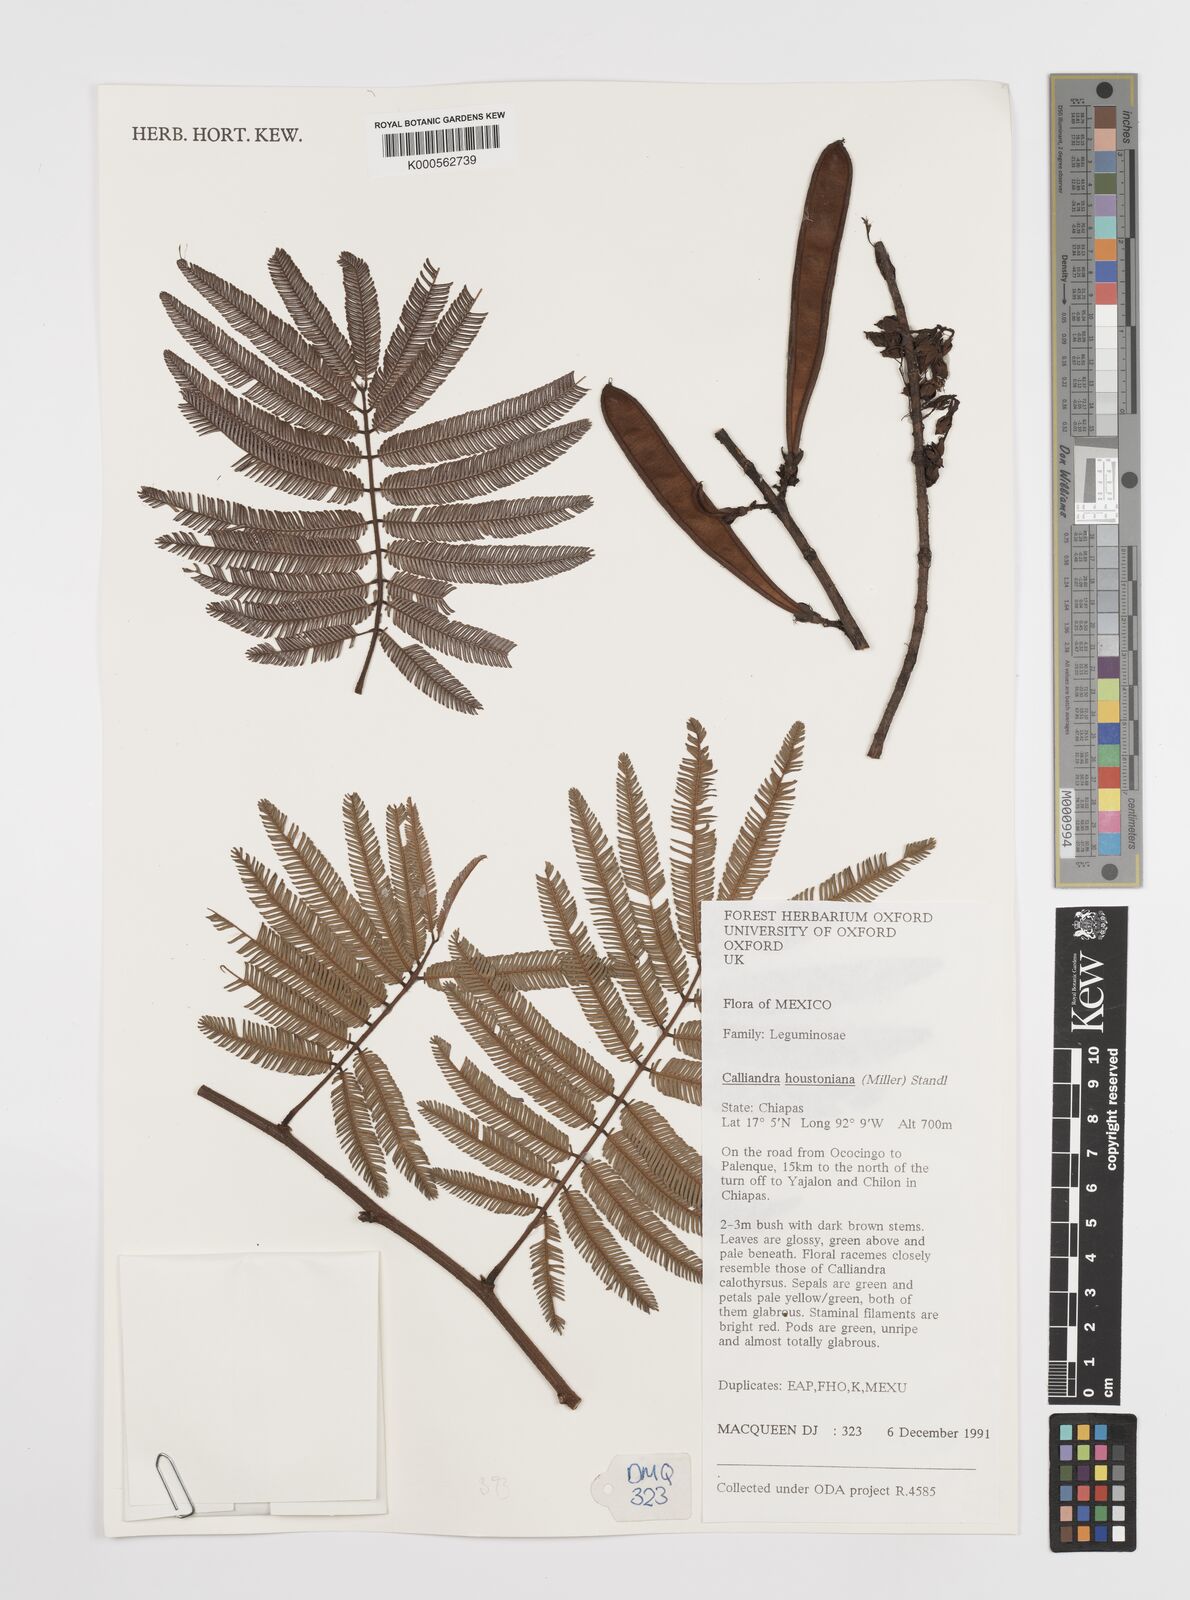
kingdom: Plantae
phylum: Tracheophyta
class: Magnoliopsida
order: Fabales
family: Fabaceae
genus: Calliandra
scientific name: Calliandra houstoniana
